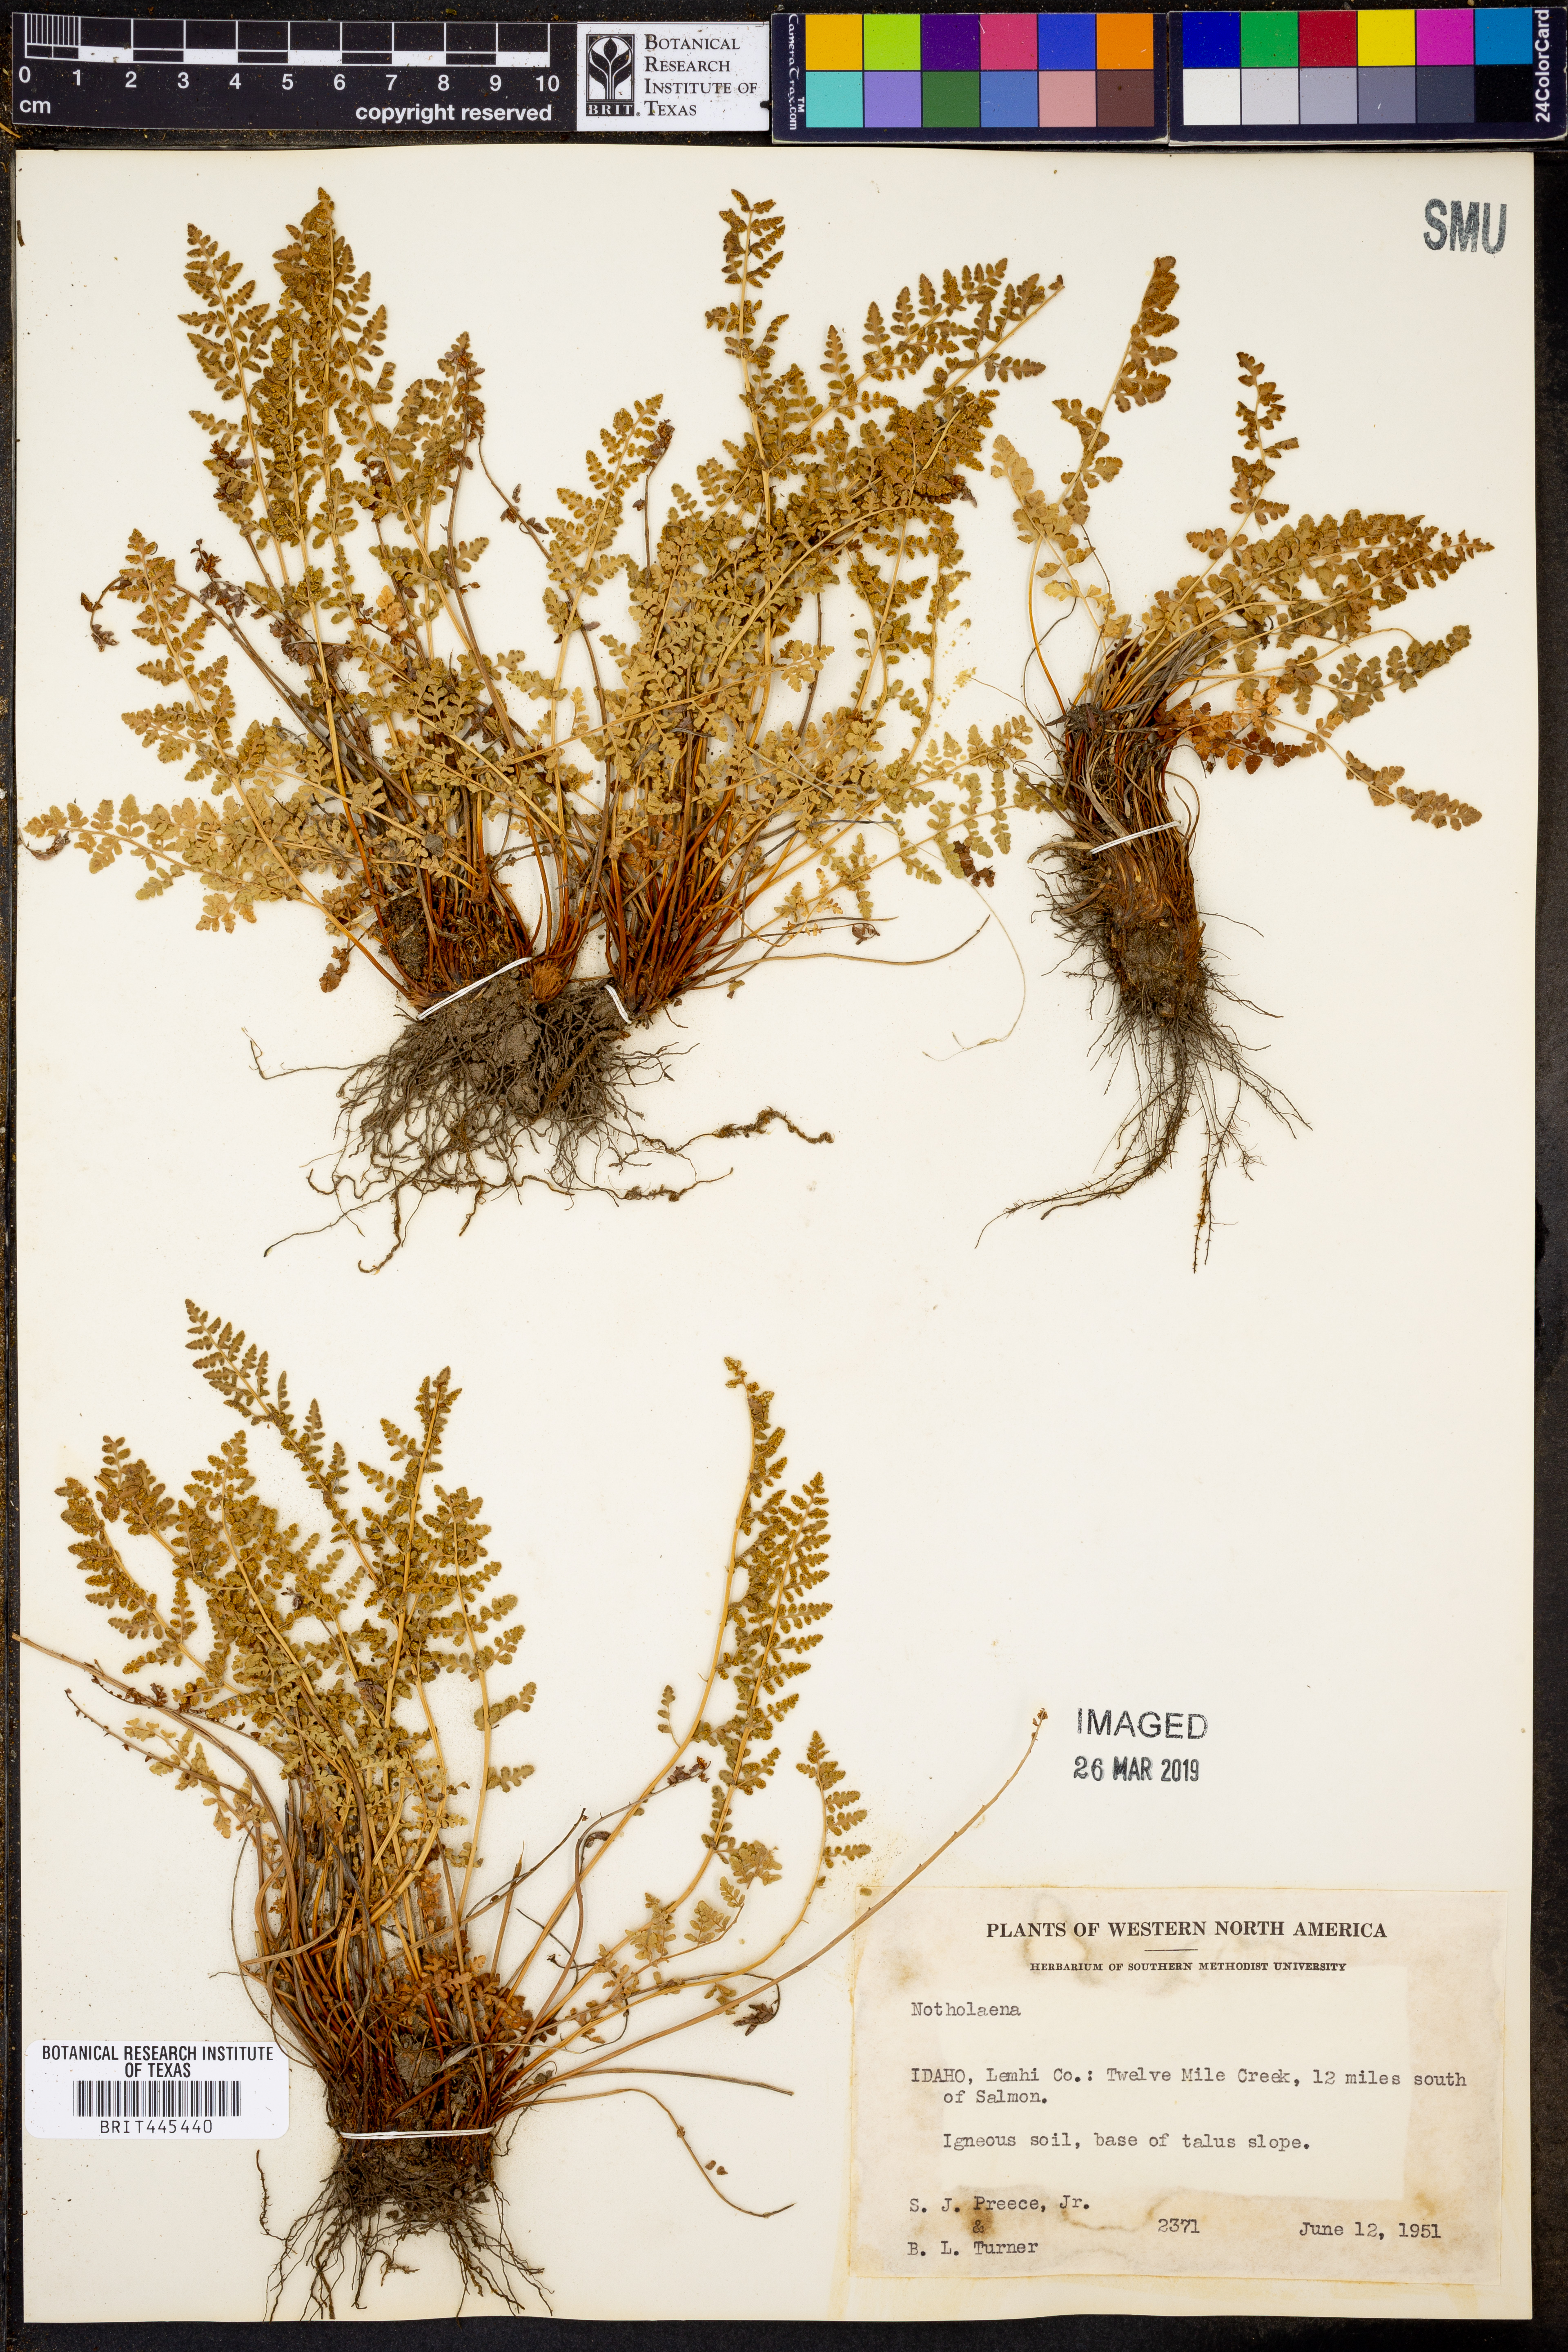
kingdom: Plantae
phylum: Tracheophyta
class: Polypodiopsida
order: Polypodiales
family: Pteridaceae
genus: Notholaena
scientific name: Notholaena
